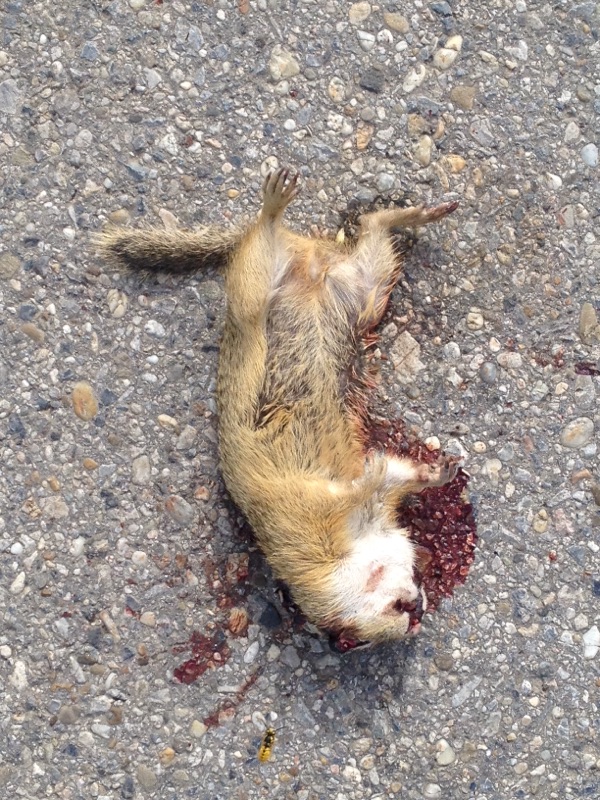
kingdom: Animalia
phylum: Chordata
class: Mammalia
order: Rodentia
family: Sciuridae
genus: Spermophilus
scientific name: Spermophilus citellus
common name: European ground squirrel
